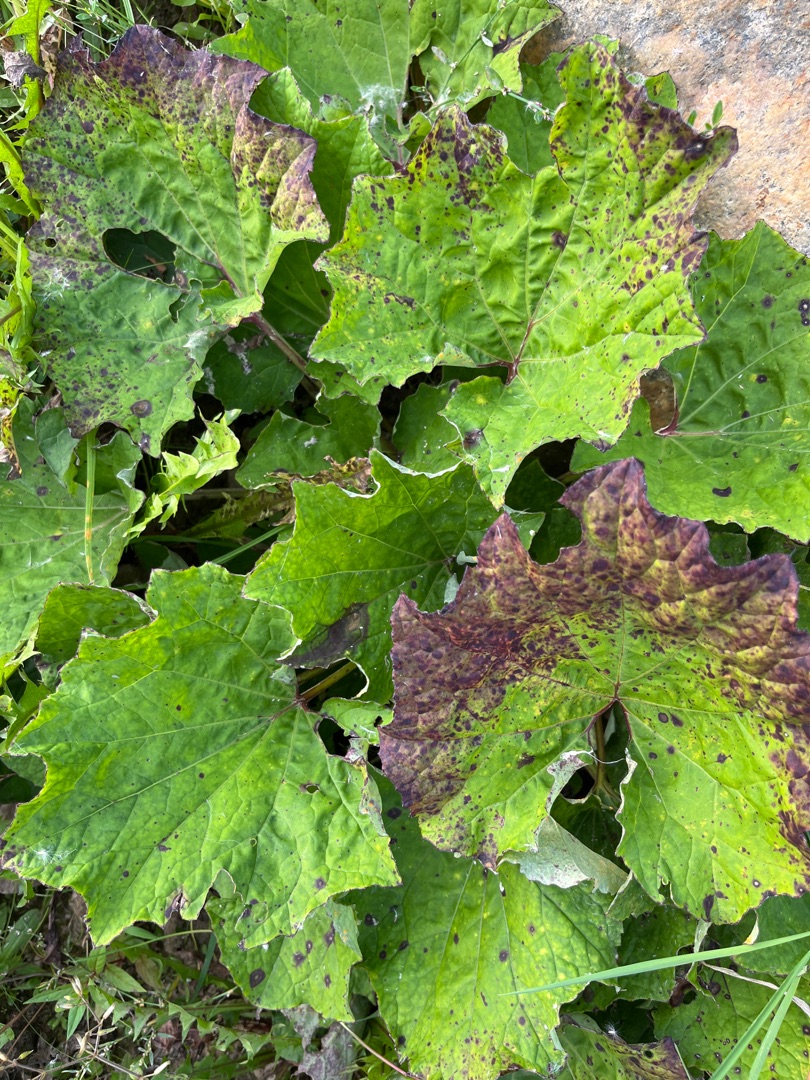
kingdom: Plantae
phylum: Tracheophyta
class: Magnoliopsida
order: Asterales
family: Asteraceae
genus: Tussilago
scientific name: Tussilago farfara
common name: Følfod
